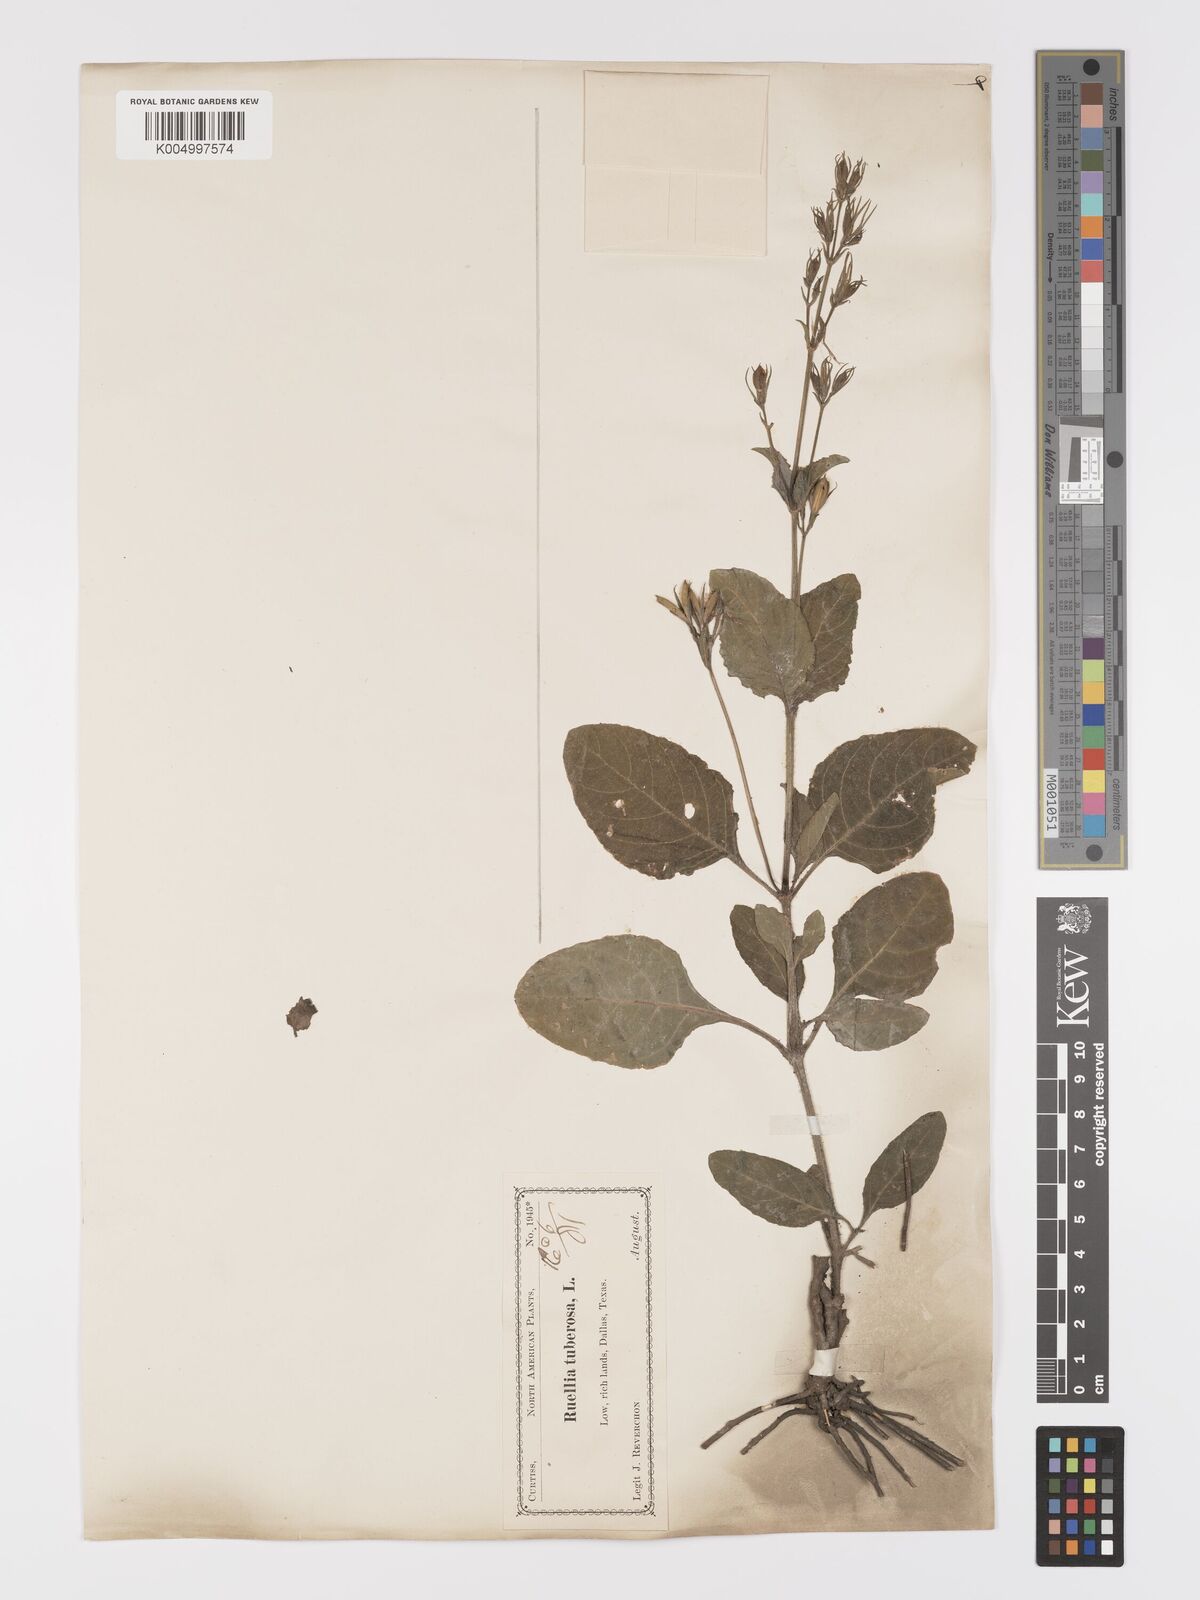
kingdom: Plantae
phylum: Tracheophyta
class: Magnoliopsida
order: Lamiales
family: Acanthaceae
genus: Ruellia
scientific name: Ruellia tuberosa
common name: Devil's bit
